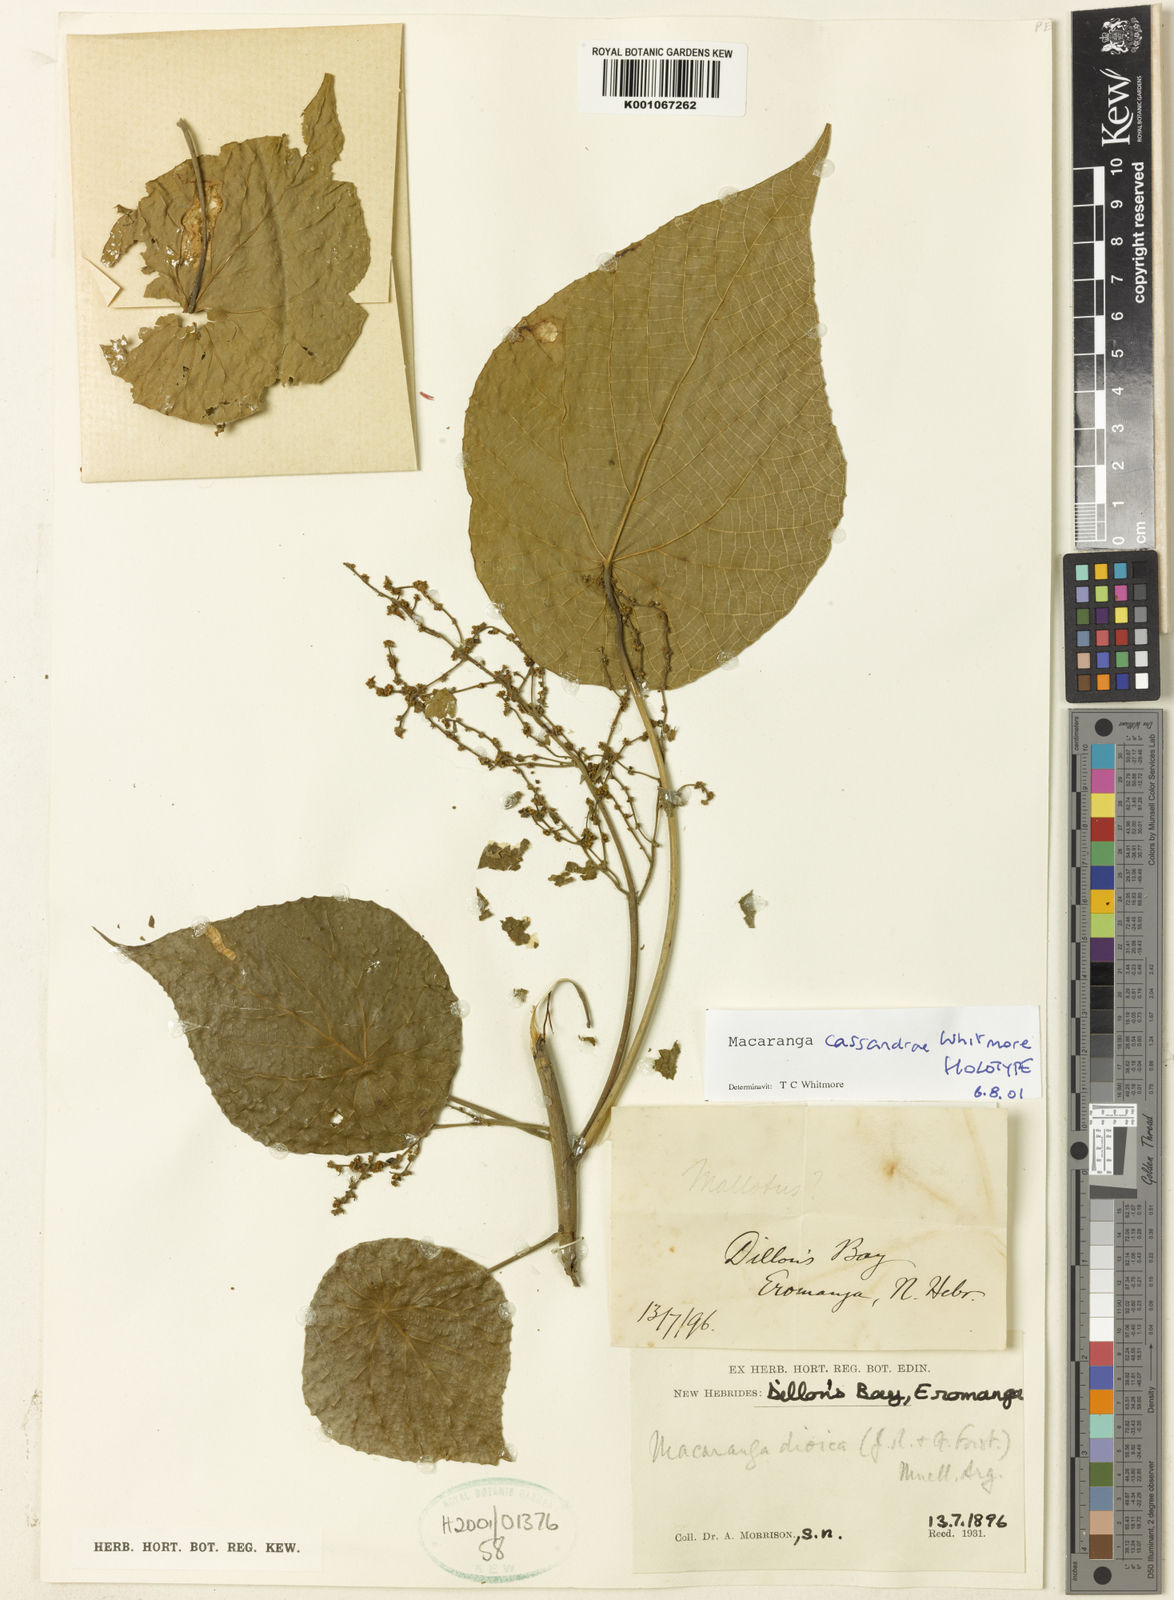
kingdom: Plantae
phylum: Tracheophyta
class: Magnoliopsida
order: Malpighiales
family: Euphorbiaceae
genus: Macaranga
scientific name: Macaranga cassandrae
